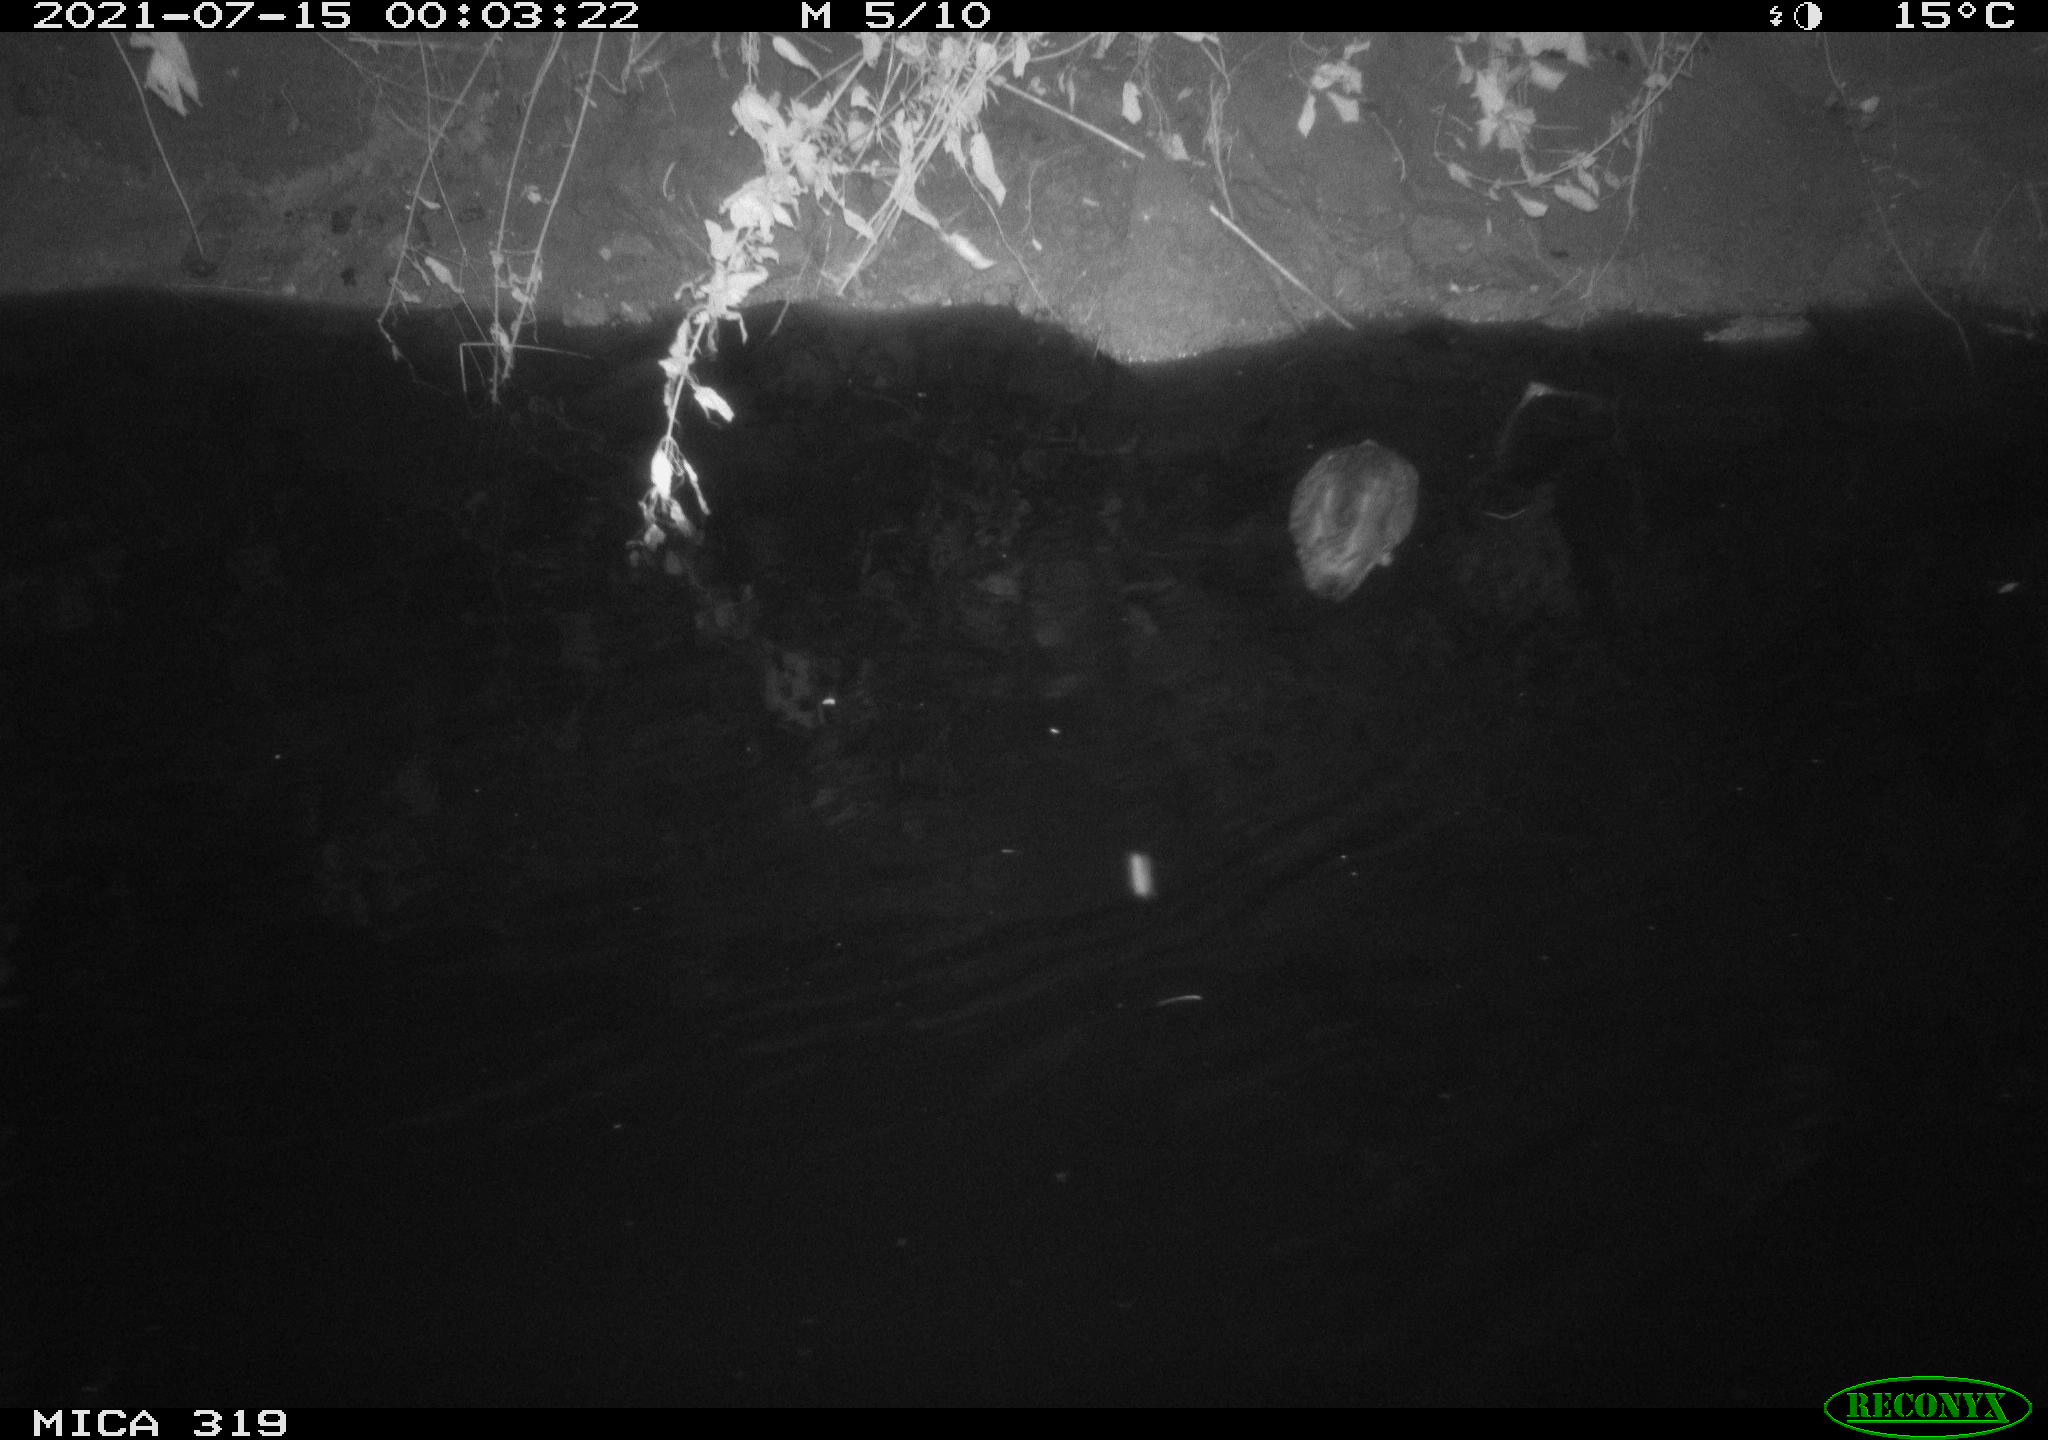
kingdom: Animalia
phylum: Chordata
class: Aves
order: Anseriformes
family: Anatidae
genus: Anas
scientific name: Anas platyrhynchos
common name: Mallard
